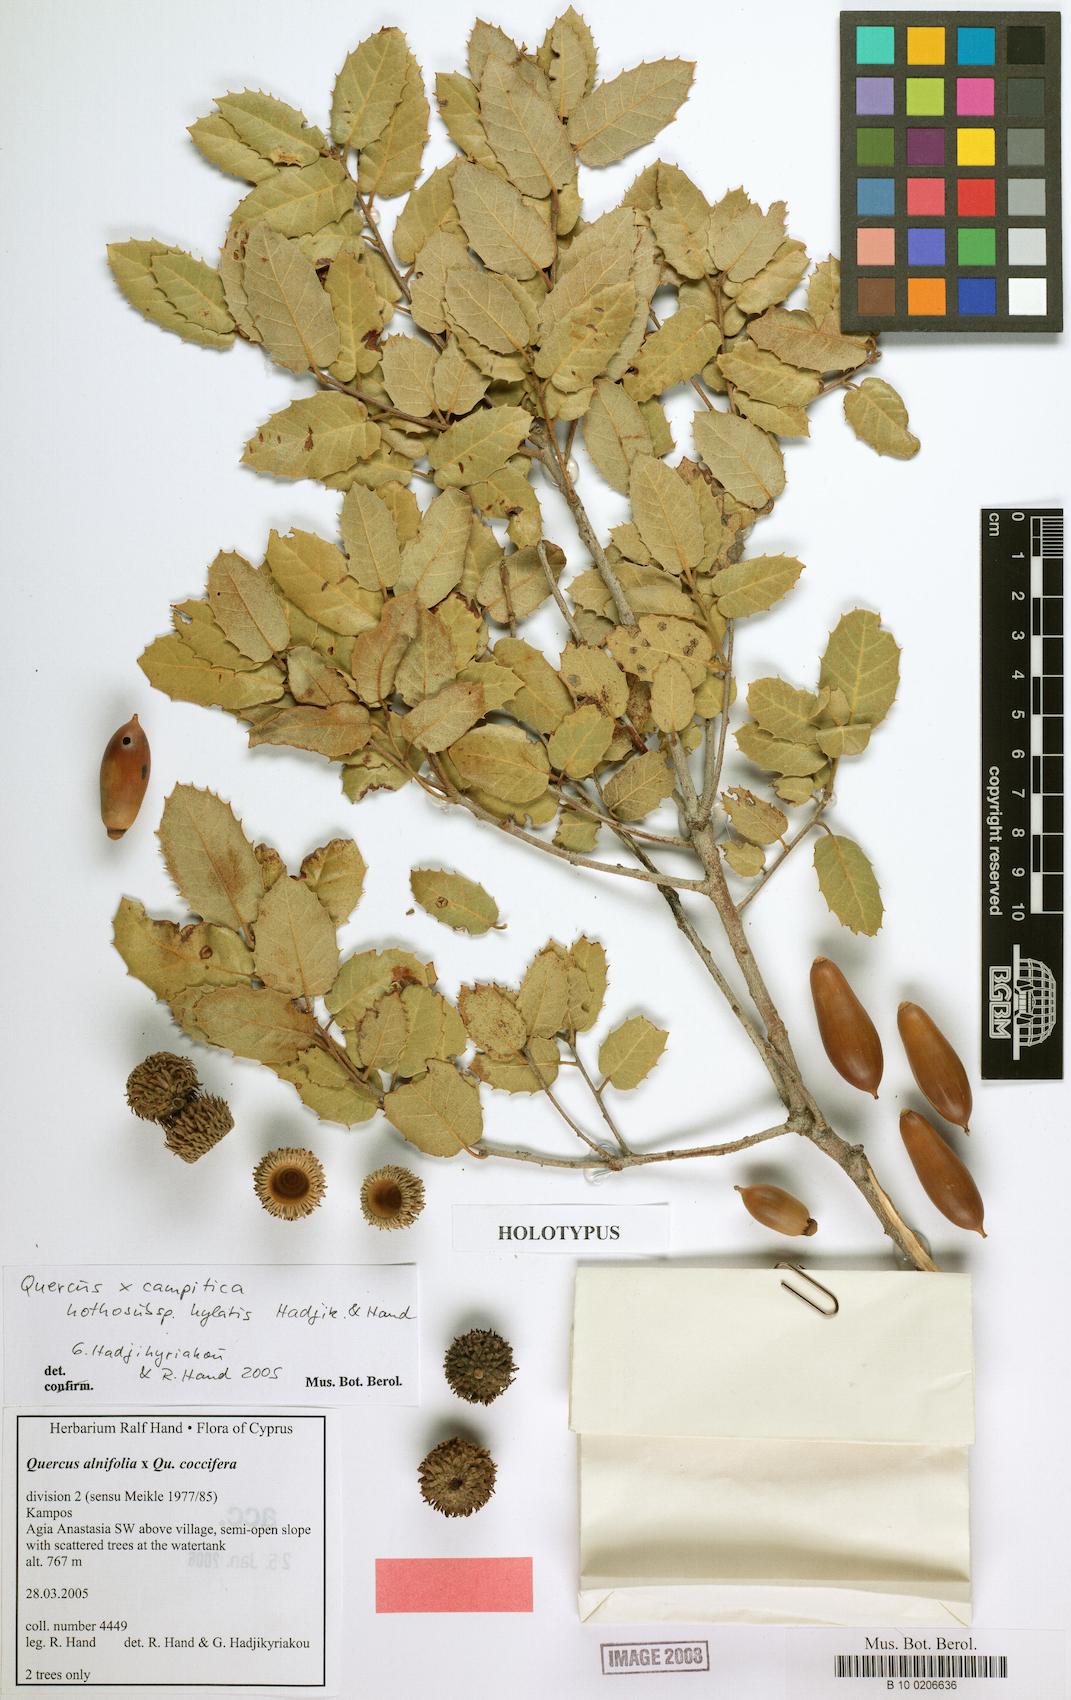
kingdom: Plantae
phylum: Tracheophyta
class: Magnoliopsida
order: Fagales
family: Fagaceae
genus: Quercus
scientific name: Quercus campitica
